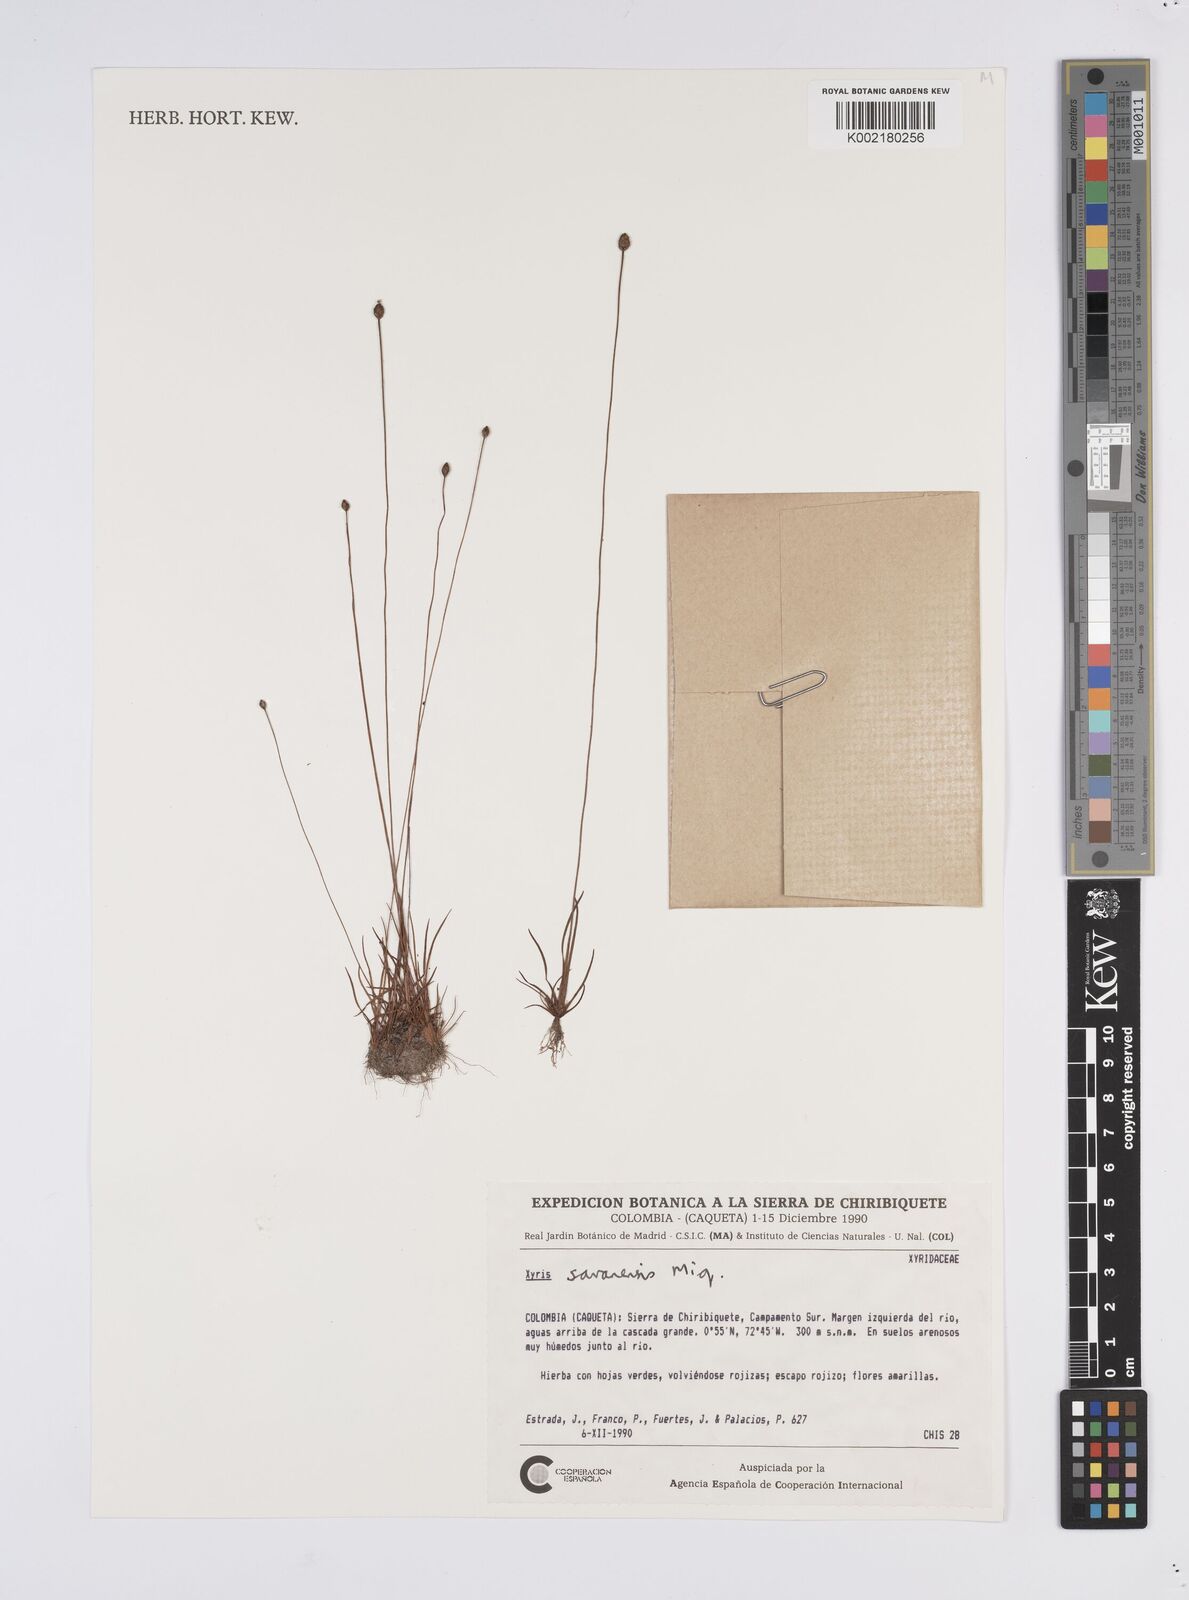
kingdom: Plantae
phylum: Tracheophyta
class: Liliopsida
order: Poales
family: Xyridaceae
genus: Xyris
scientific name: Xyris savanensis
